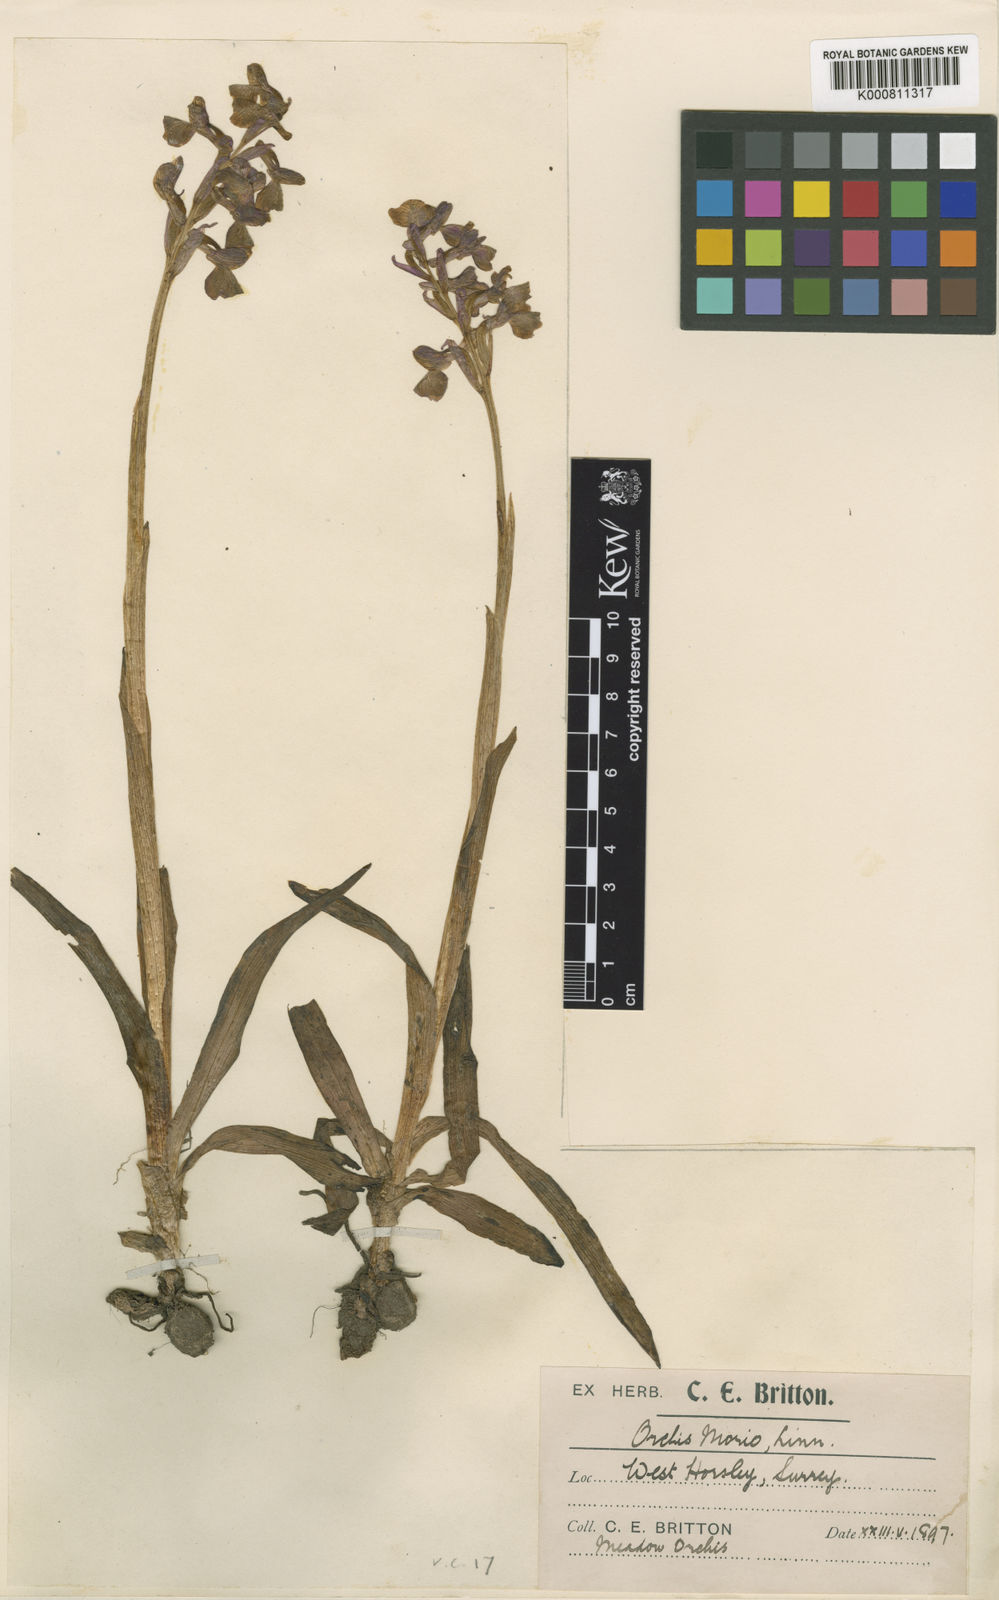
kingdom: Plantae
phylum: Tracheophyta
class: Liliopsida
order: Asparagales
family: Orchidaceae
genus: Anacamptis
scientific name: Anacamptis morio
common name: Green-winged orchid
